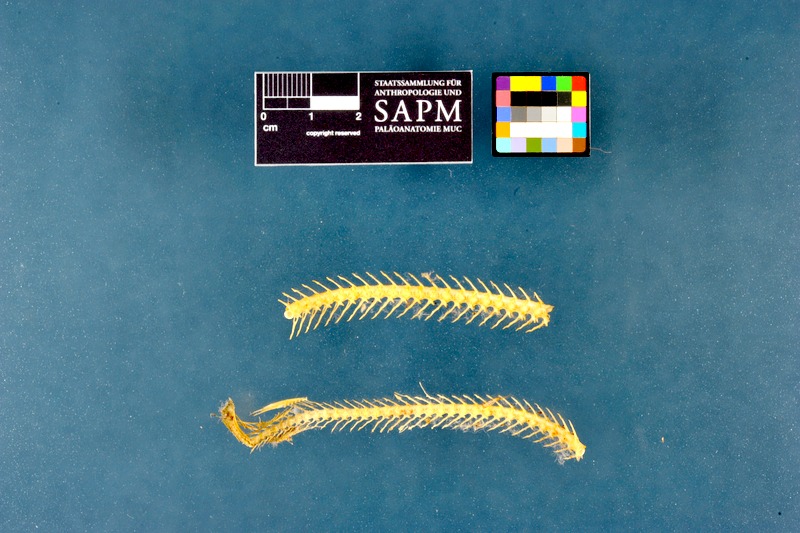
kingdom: Animalia
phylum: Chordata
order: Anguilliformes
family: Anguillidae
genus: Anguilla
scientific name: Anguilla anguilla
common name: European eel
